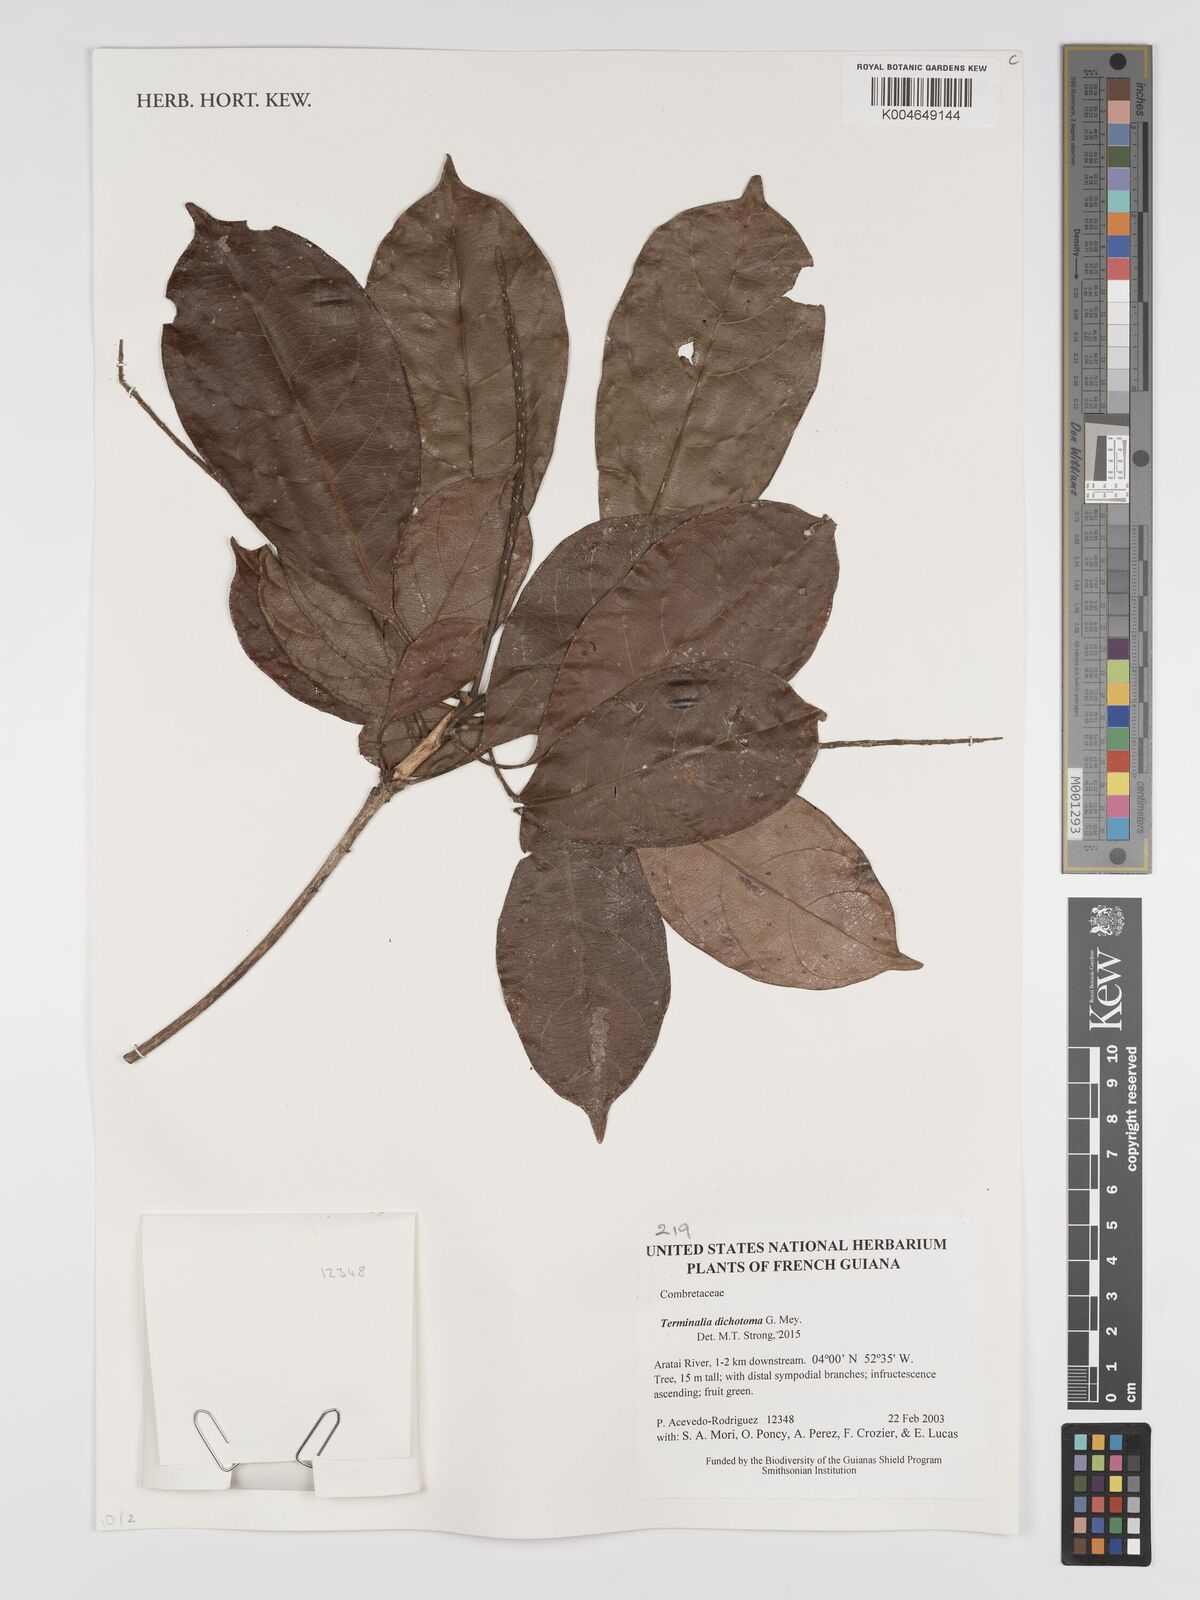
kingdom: Plantae
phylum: Tracheophyta
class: Magnoliopsida
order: Myrtales
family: Combretaceae
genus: Terminalia
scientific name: Terminalia dichotoma
